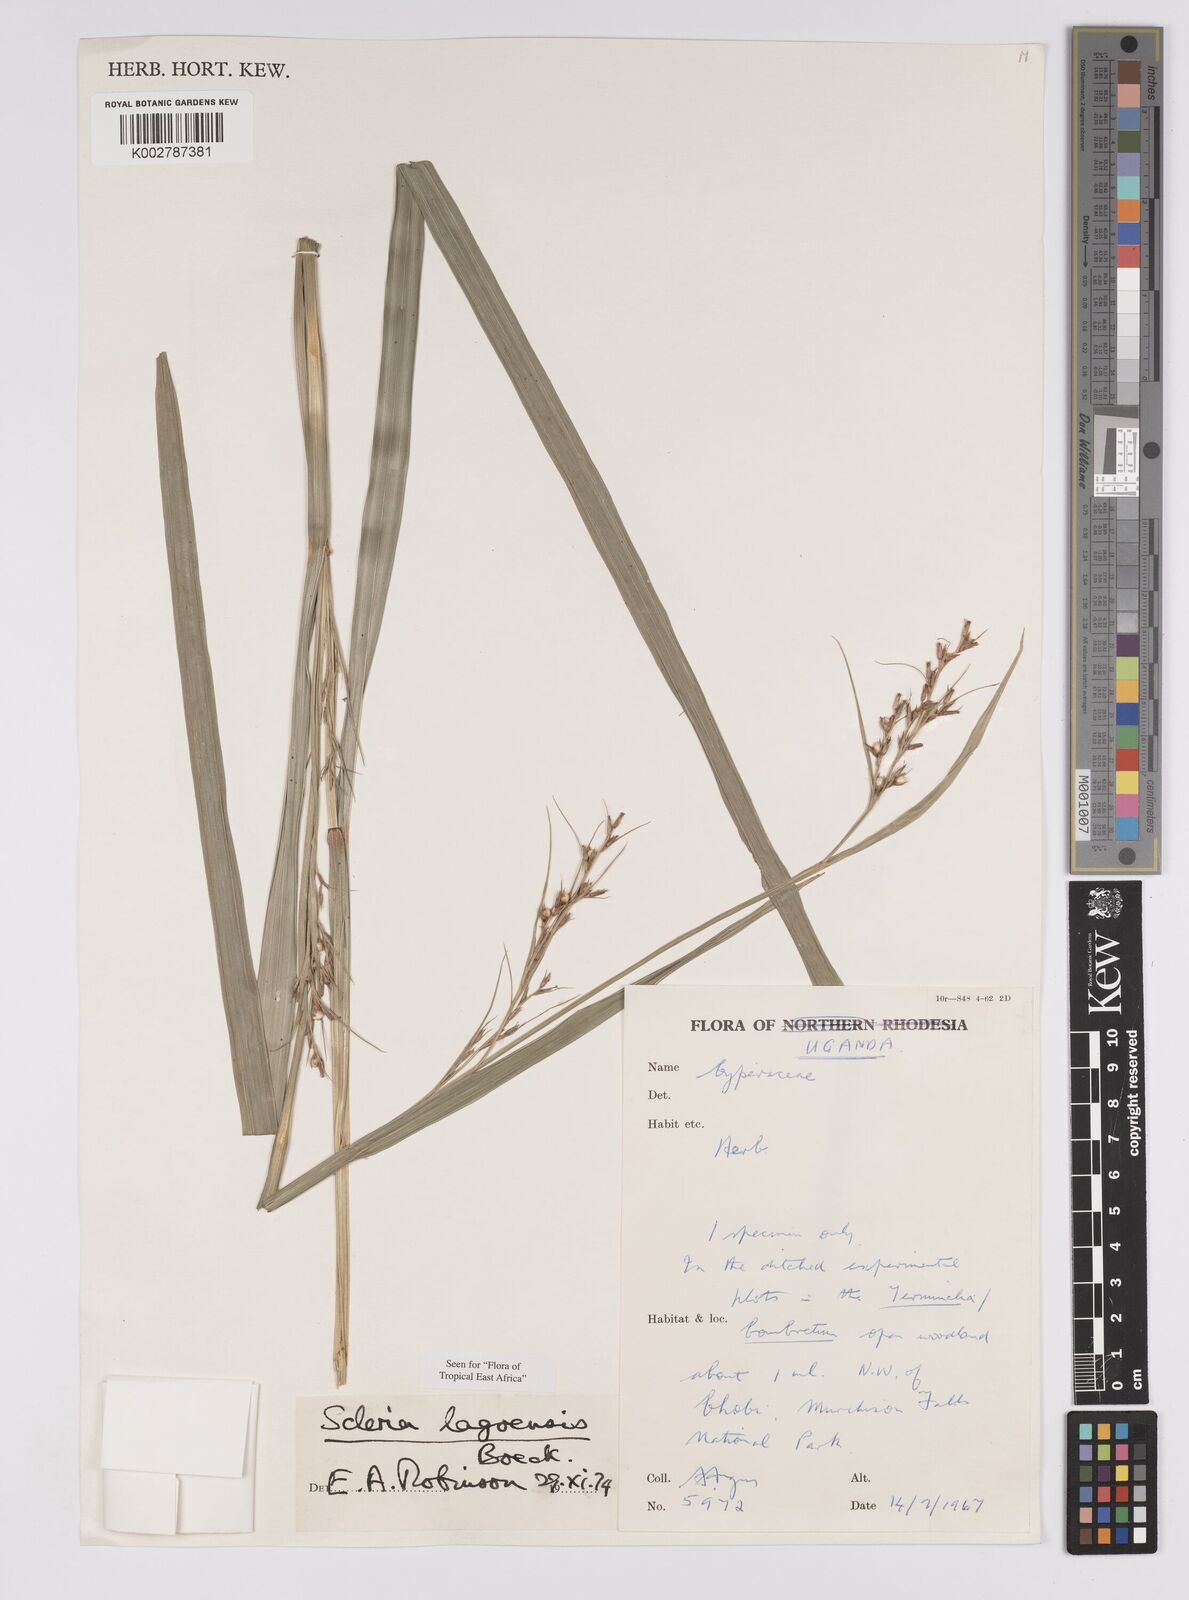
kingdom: Plantae
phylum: Tracheophyta
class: Liliopsida
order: Poales
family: Cyperaceae
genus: Scleria
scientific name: Scleria lagoensis
